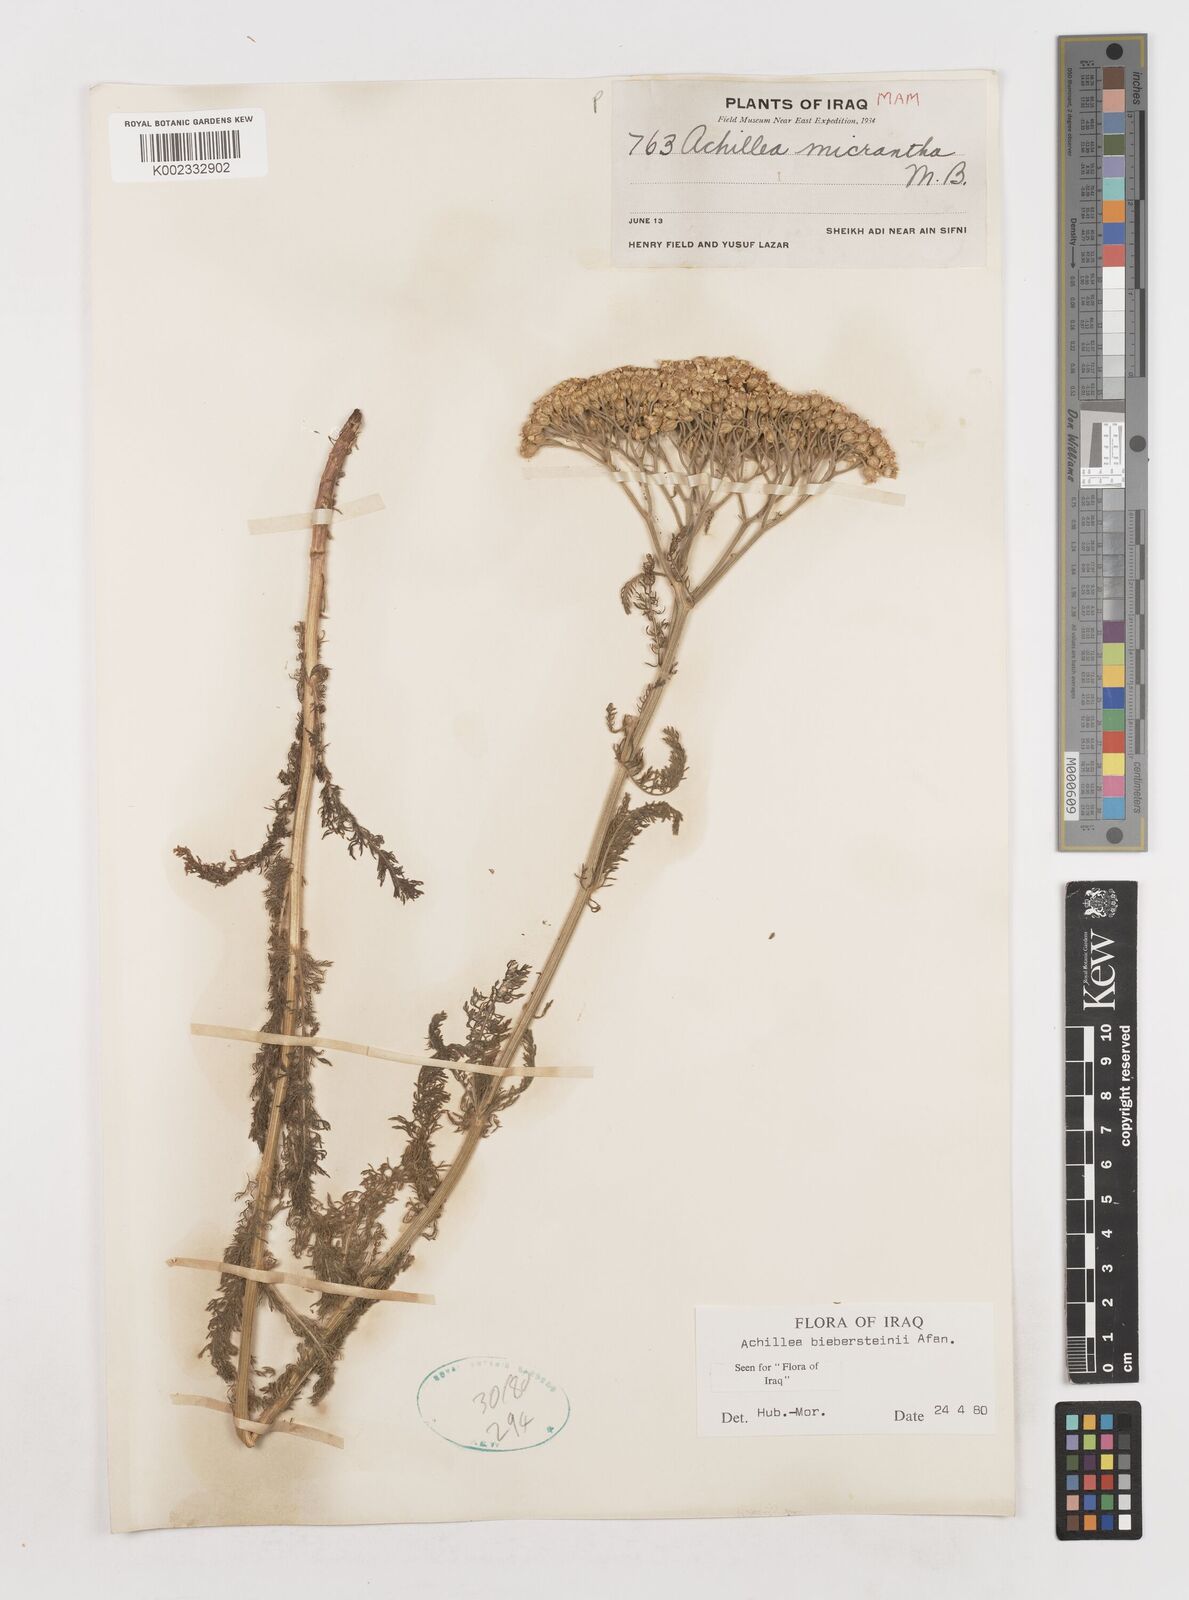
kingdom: Plantae
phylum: Tracheophyta
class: Magnoliopsida
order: Asterales
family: Asteraceae
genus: Achillea
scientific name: Achillea arabica
